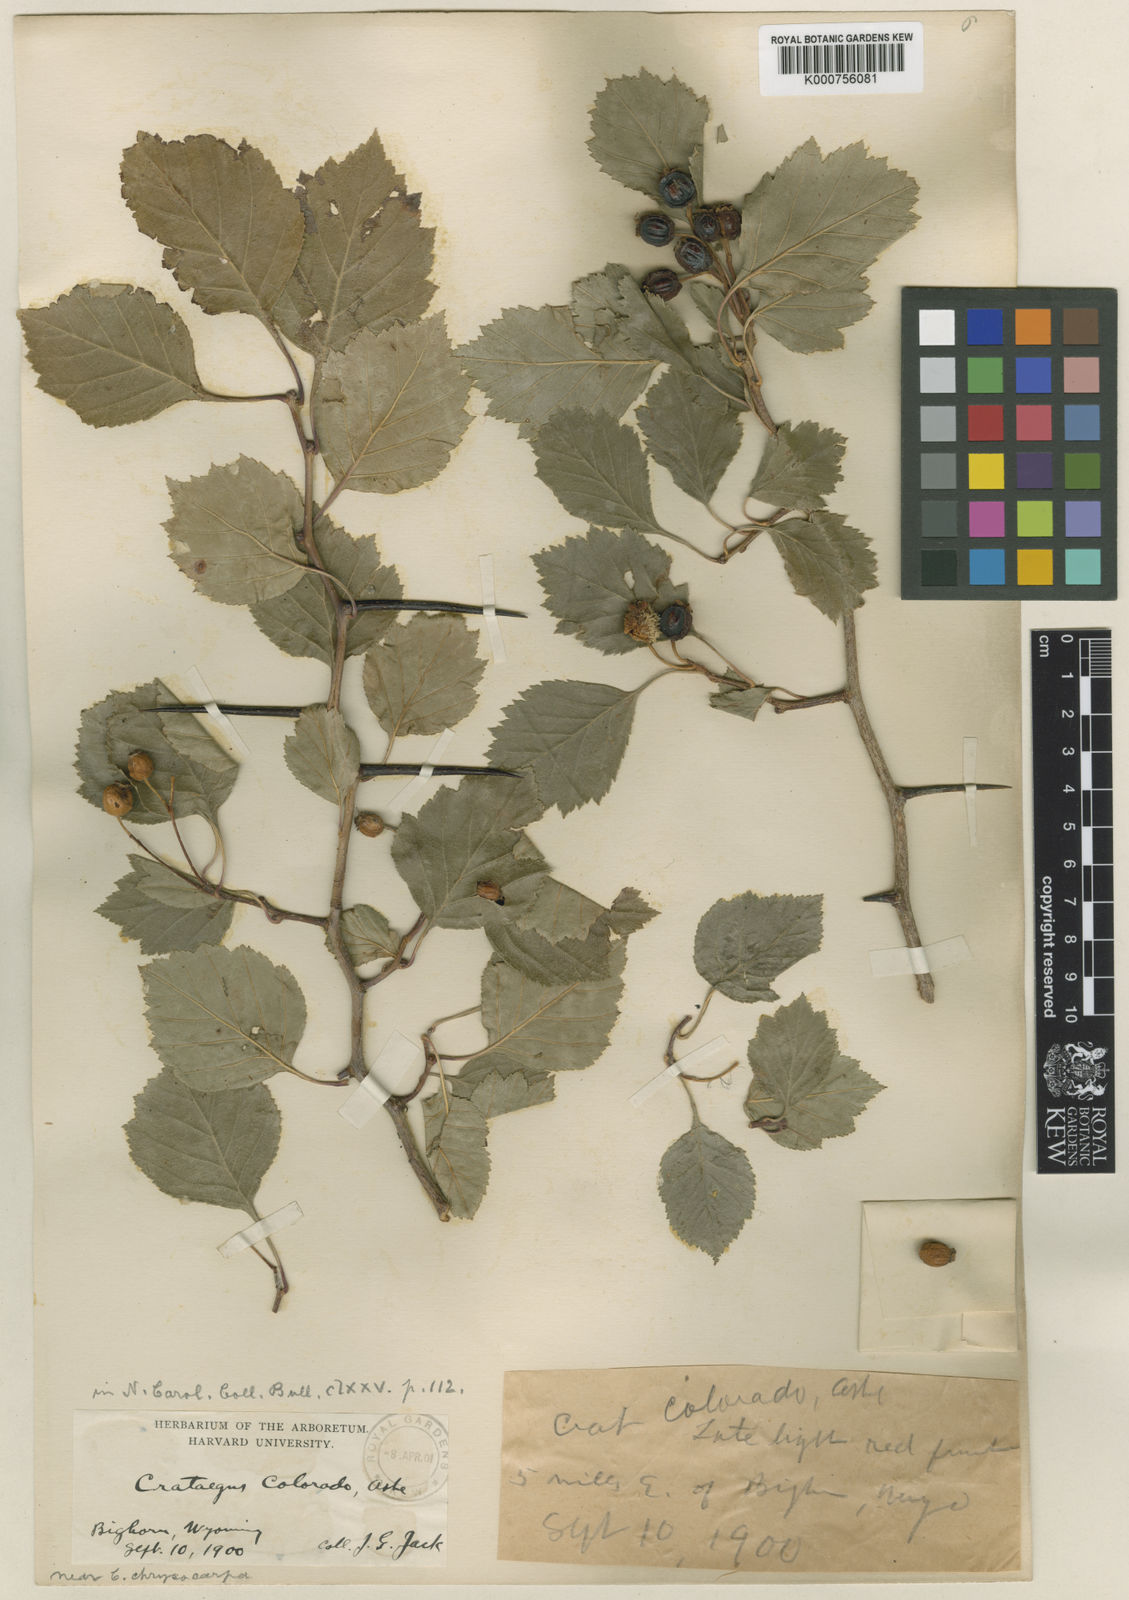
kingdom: Plantae
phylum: Tracheophyta
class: Magnoliopsida
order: Rosales
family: Rosaceae
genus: Crataegus
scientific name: Crataegus succulenta
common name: Fleshy hawthorn
